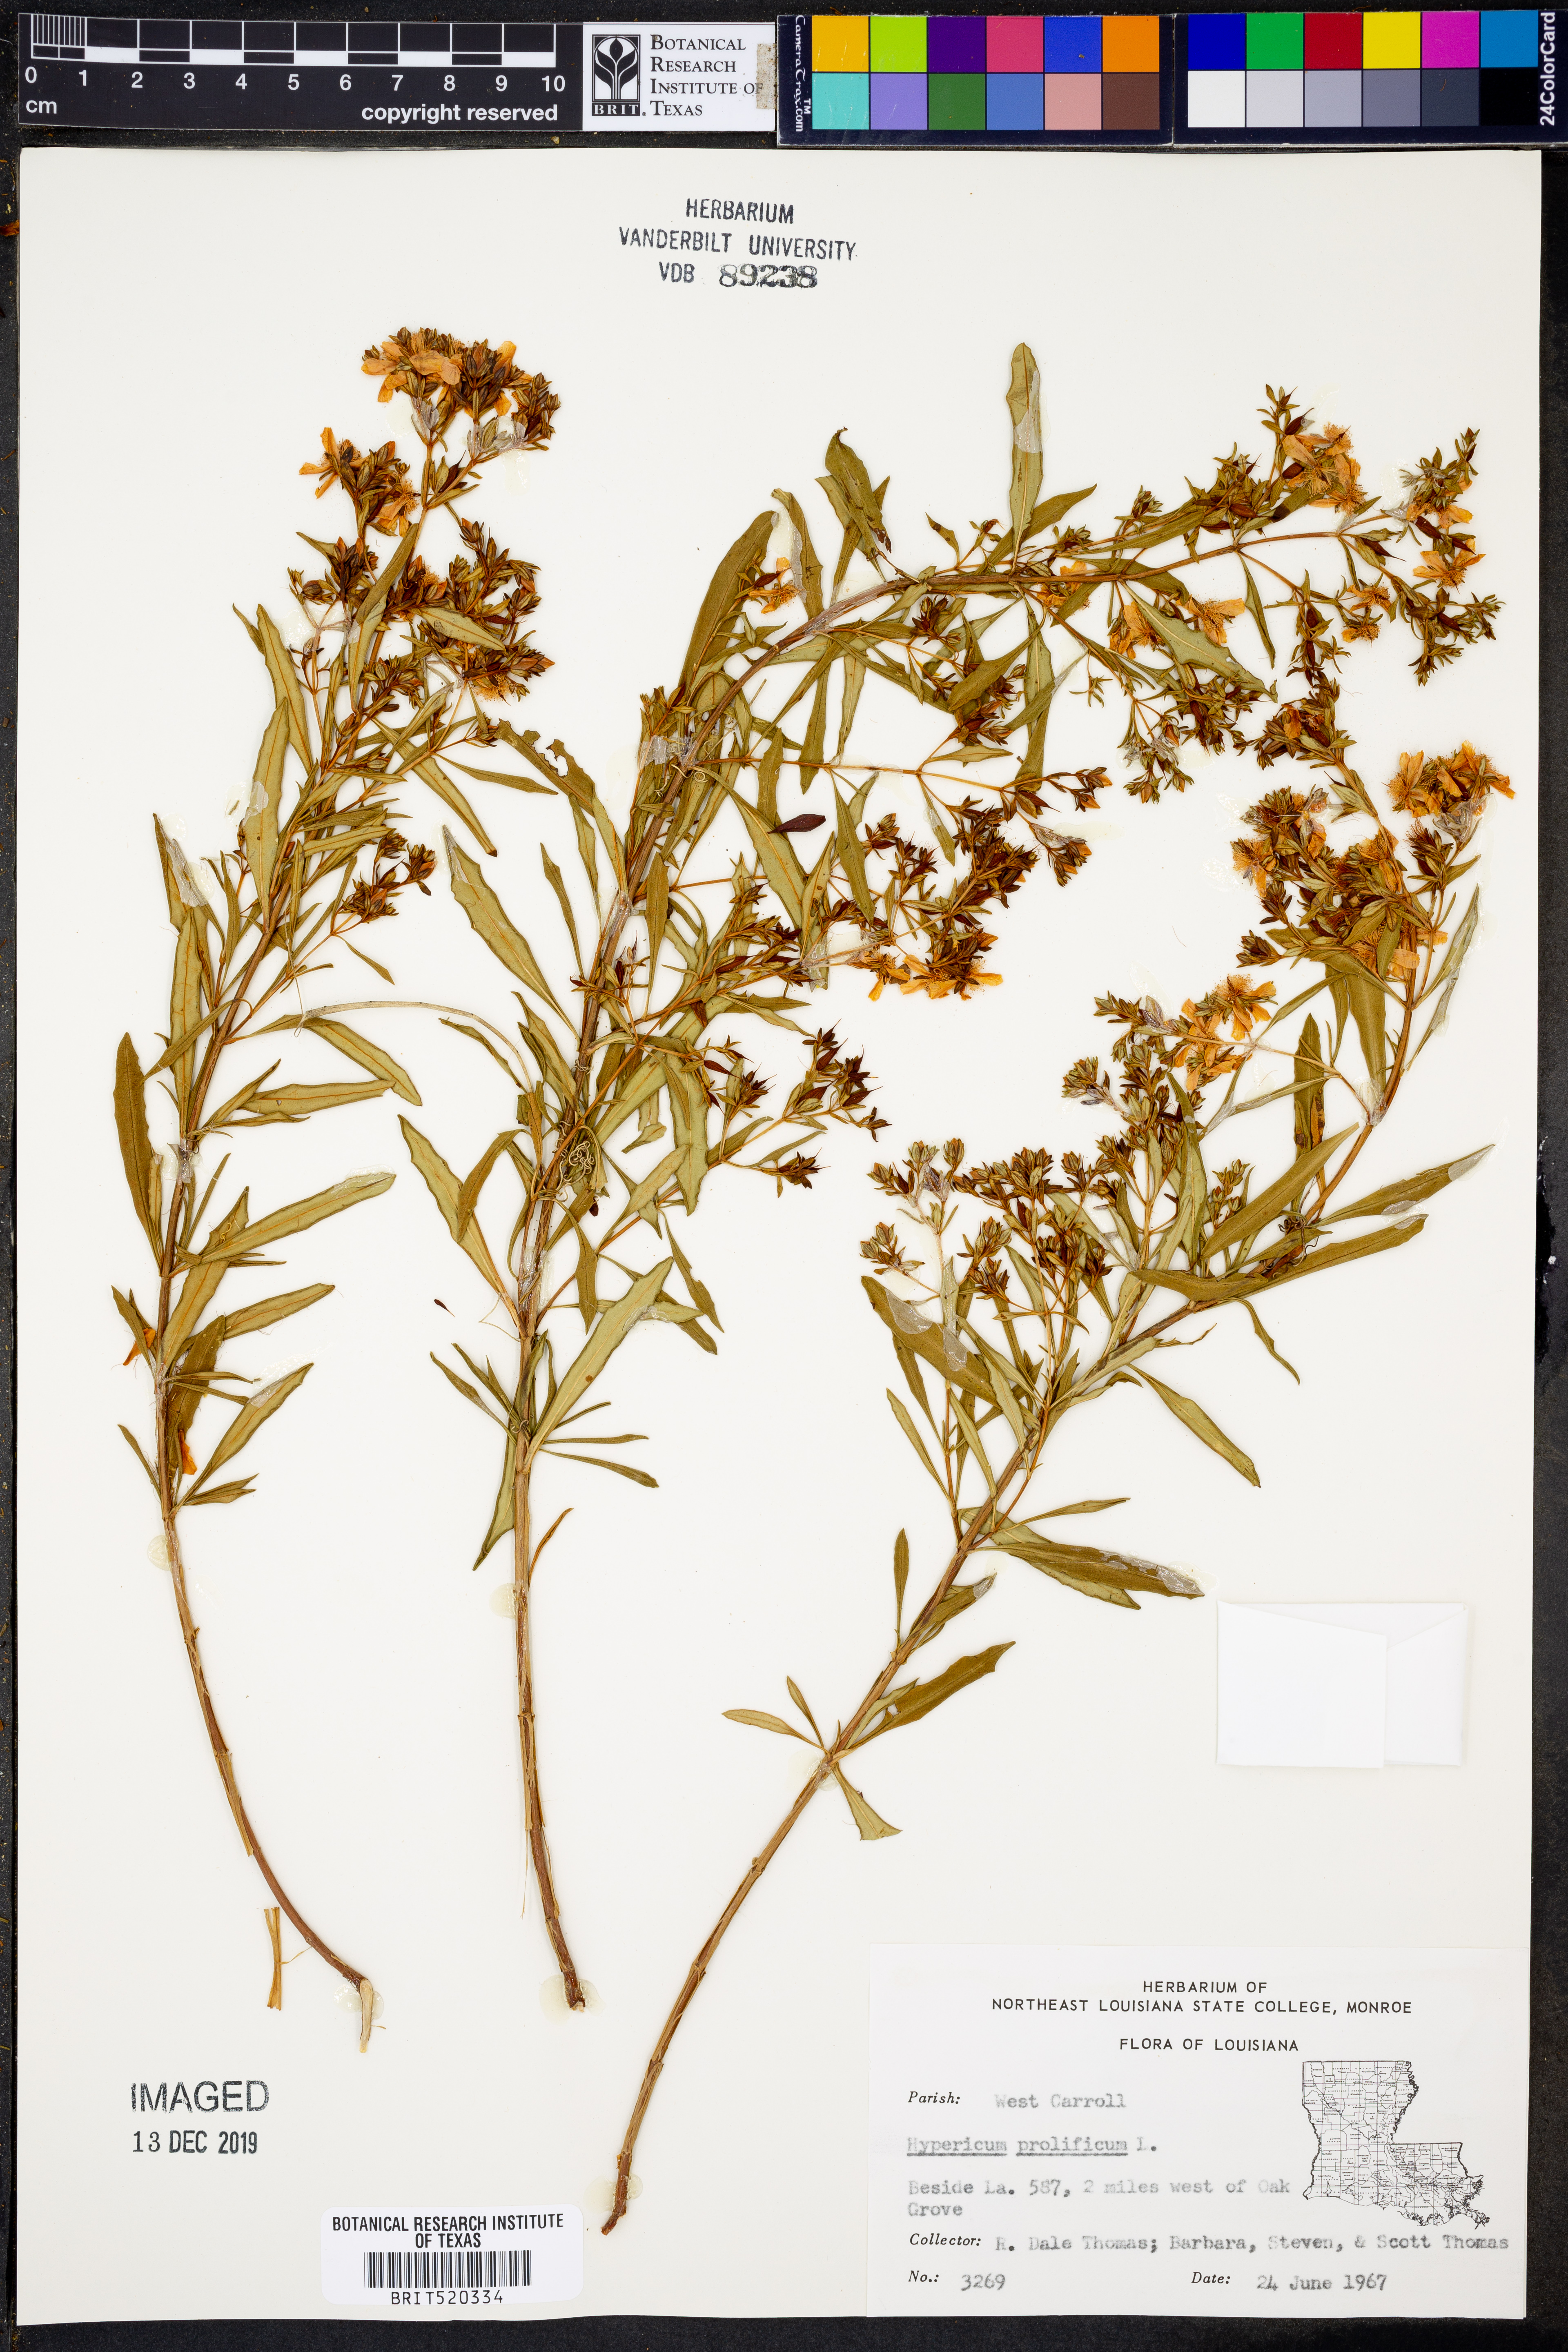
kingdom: Plantae
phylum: Tracheophyta
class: Magnoliopsida
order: Malpighiales
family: Hypericaceae
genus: Hypericum
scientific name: Hypericum prolificum
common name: Shrubby st. john's-wort
